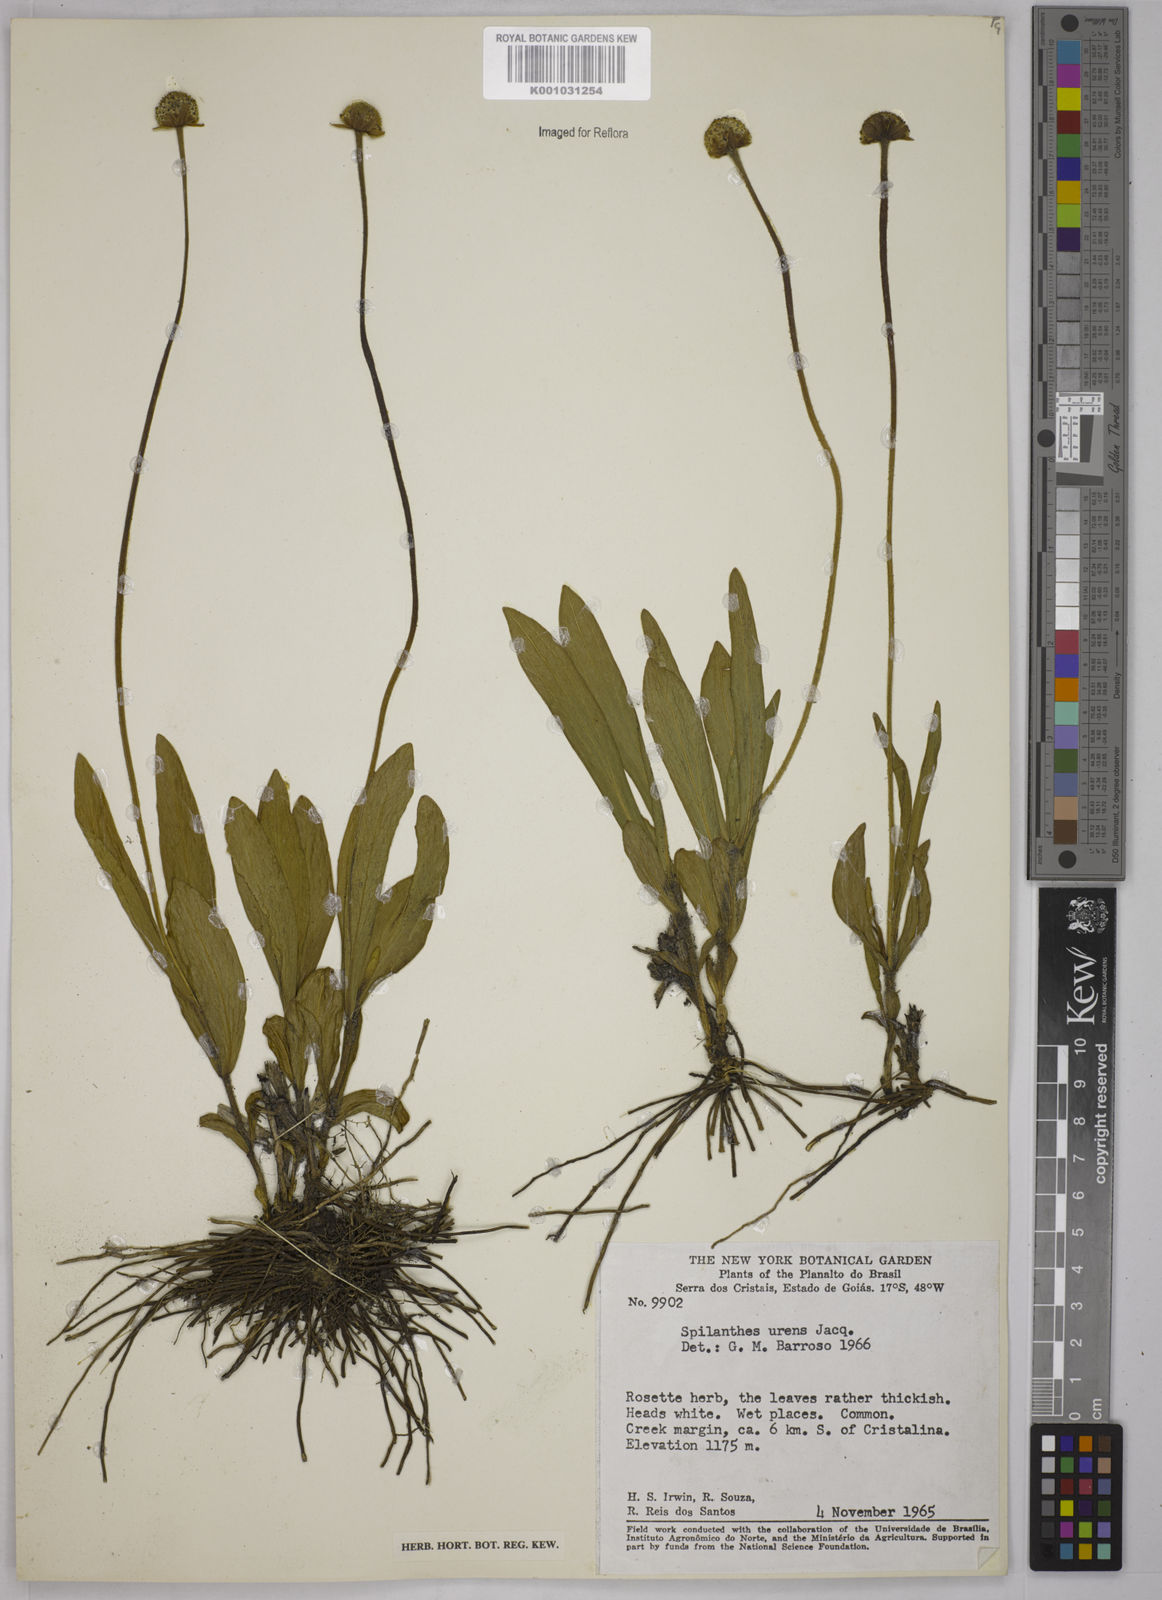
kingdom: Plantae
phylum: Tracheophyta
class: Magnoliopsida
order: Asterales
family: Asteraceae
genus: Spilanthes
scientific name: Spilanthes urens
